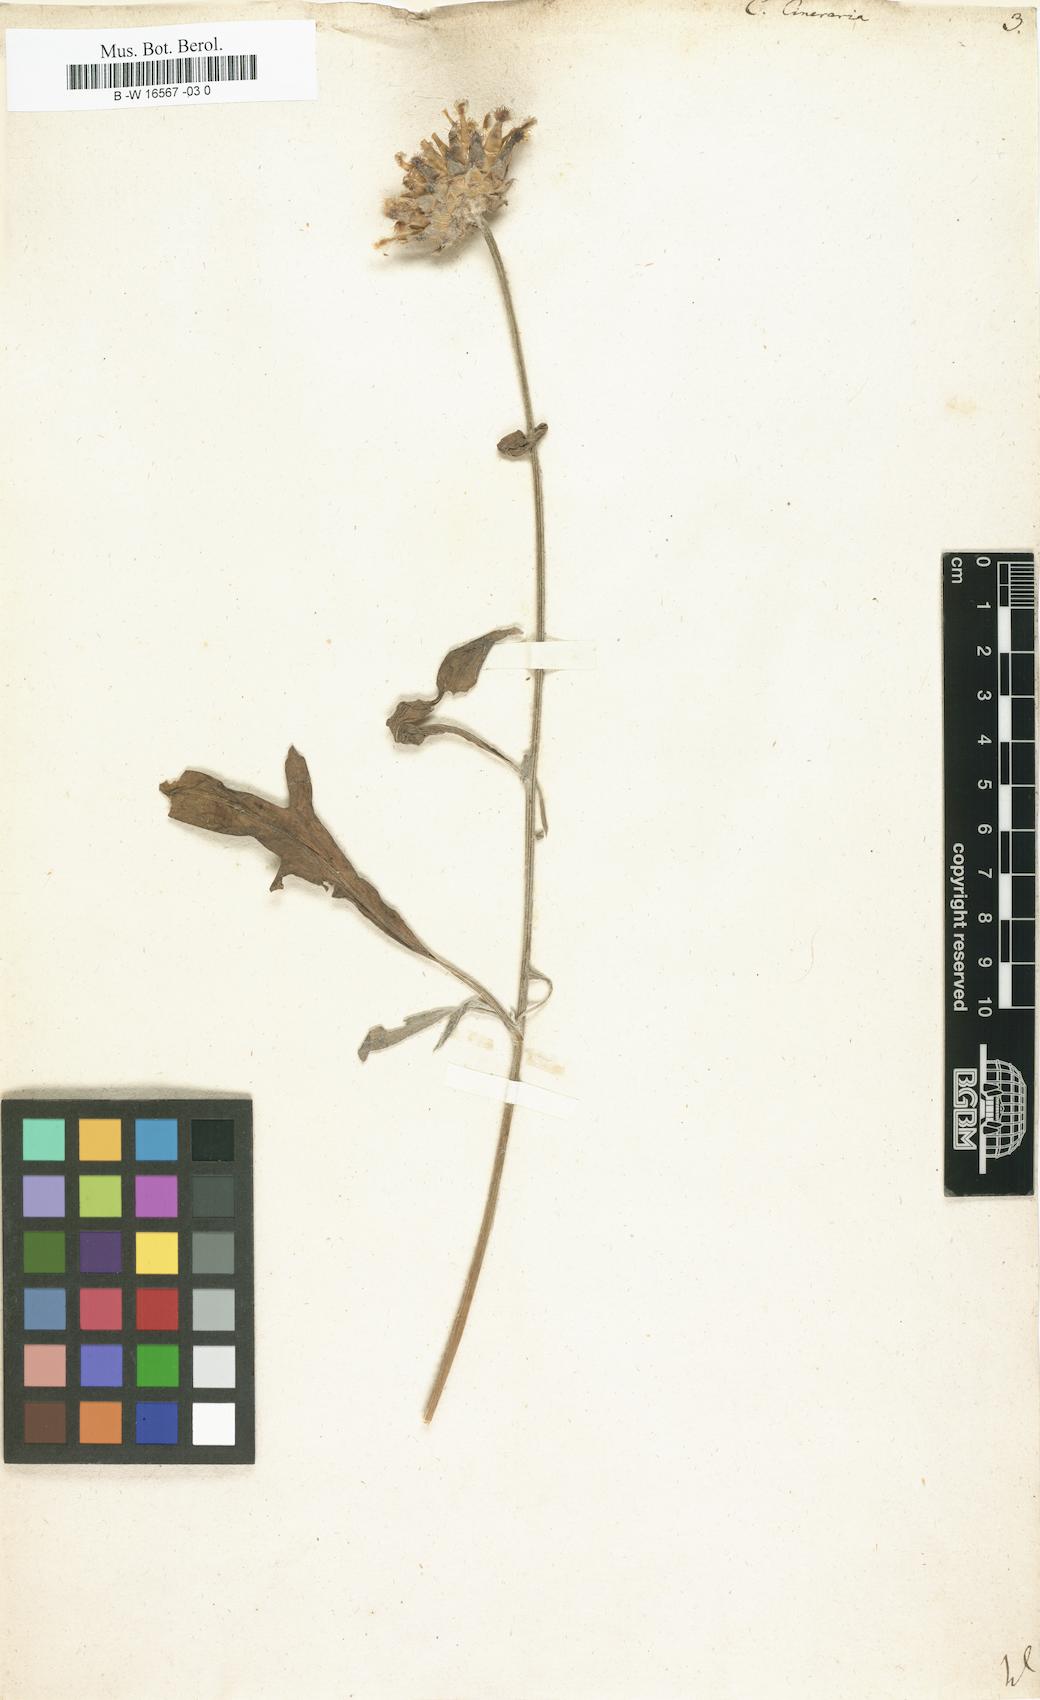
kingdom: Plantae
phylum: Tracheophyta
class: Magnoliopsida
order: Asterales
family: Asteraceae
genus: Centaurea
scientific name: Centaurea cineraria
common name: Dusty miller
